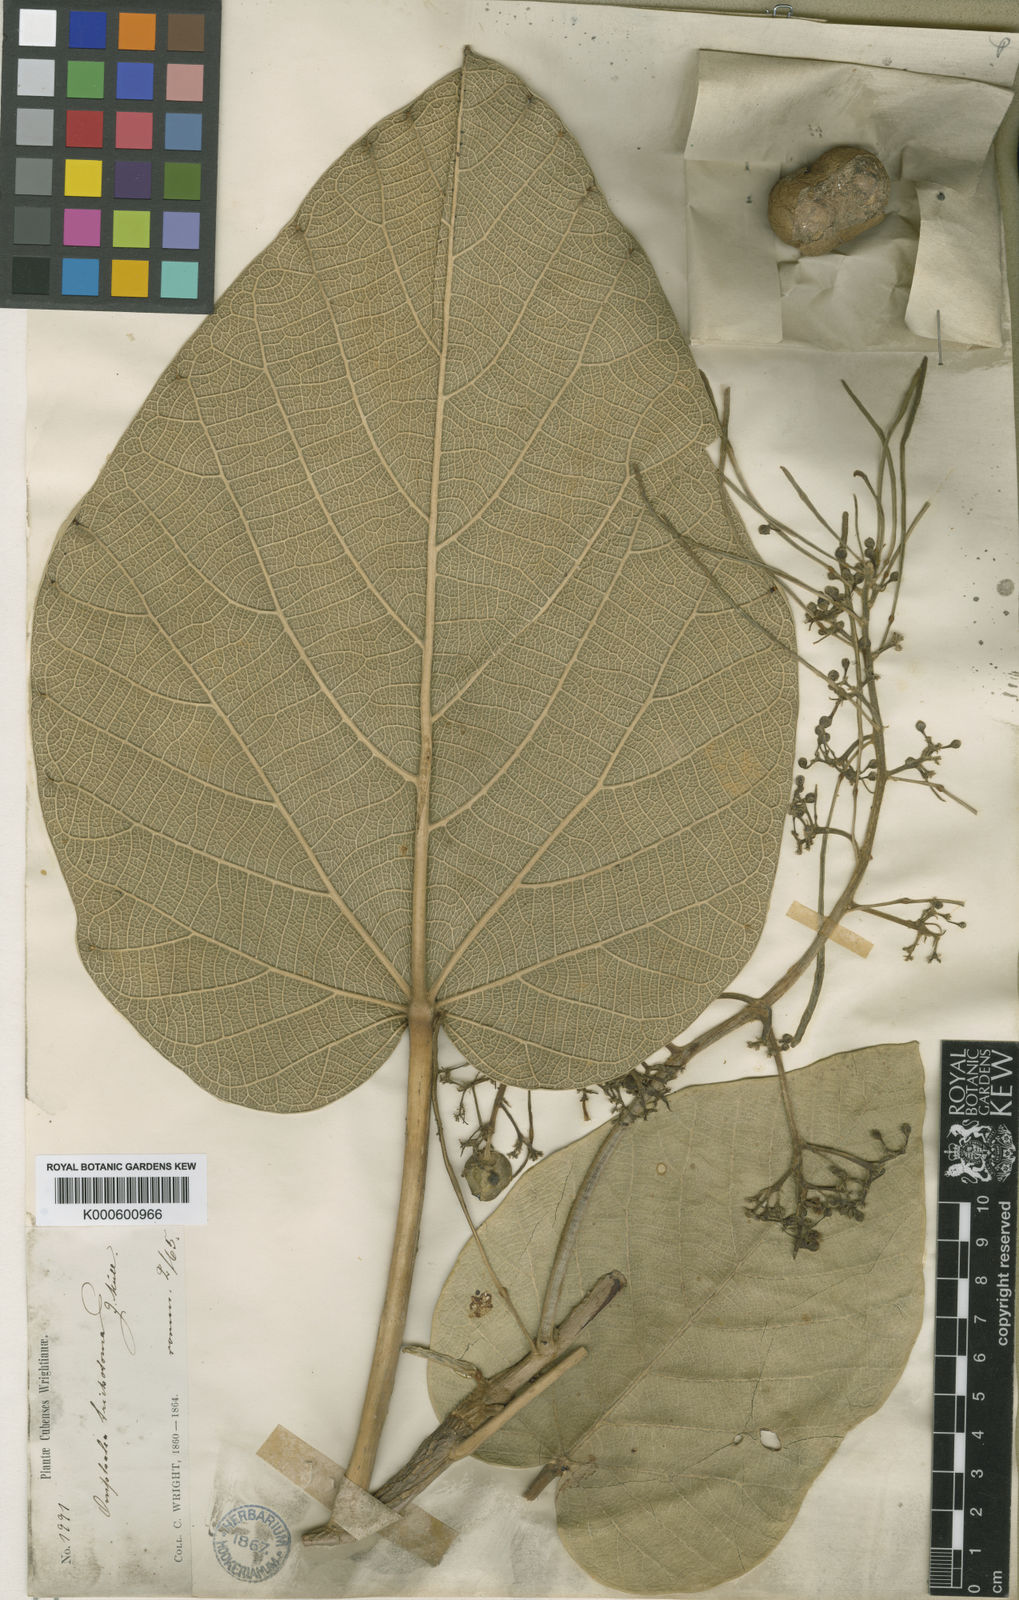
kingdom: Plantae
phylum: Tracheophyta
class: Magnoliopsida
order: Malpighiales
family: Euphorbiaceae
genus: Omphalea
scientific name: Omphalea
